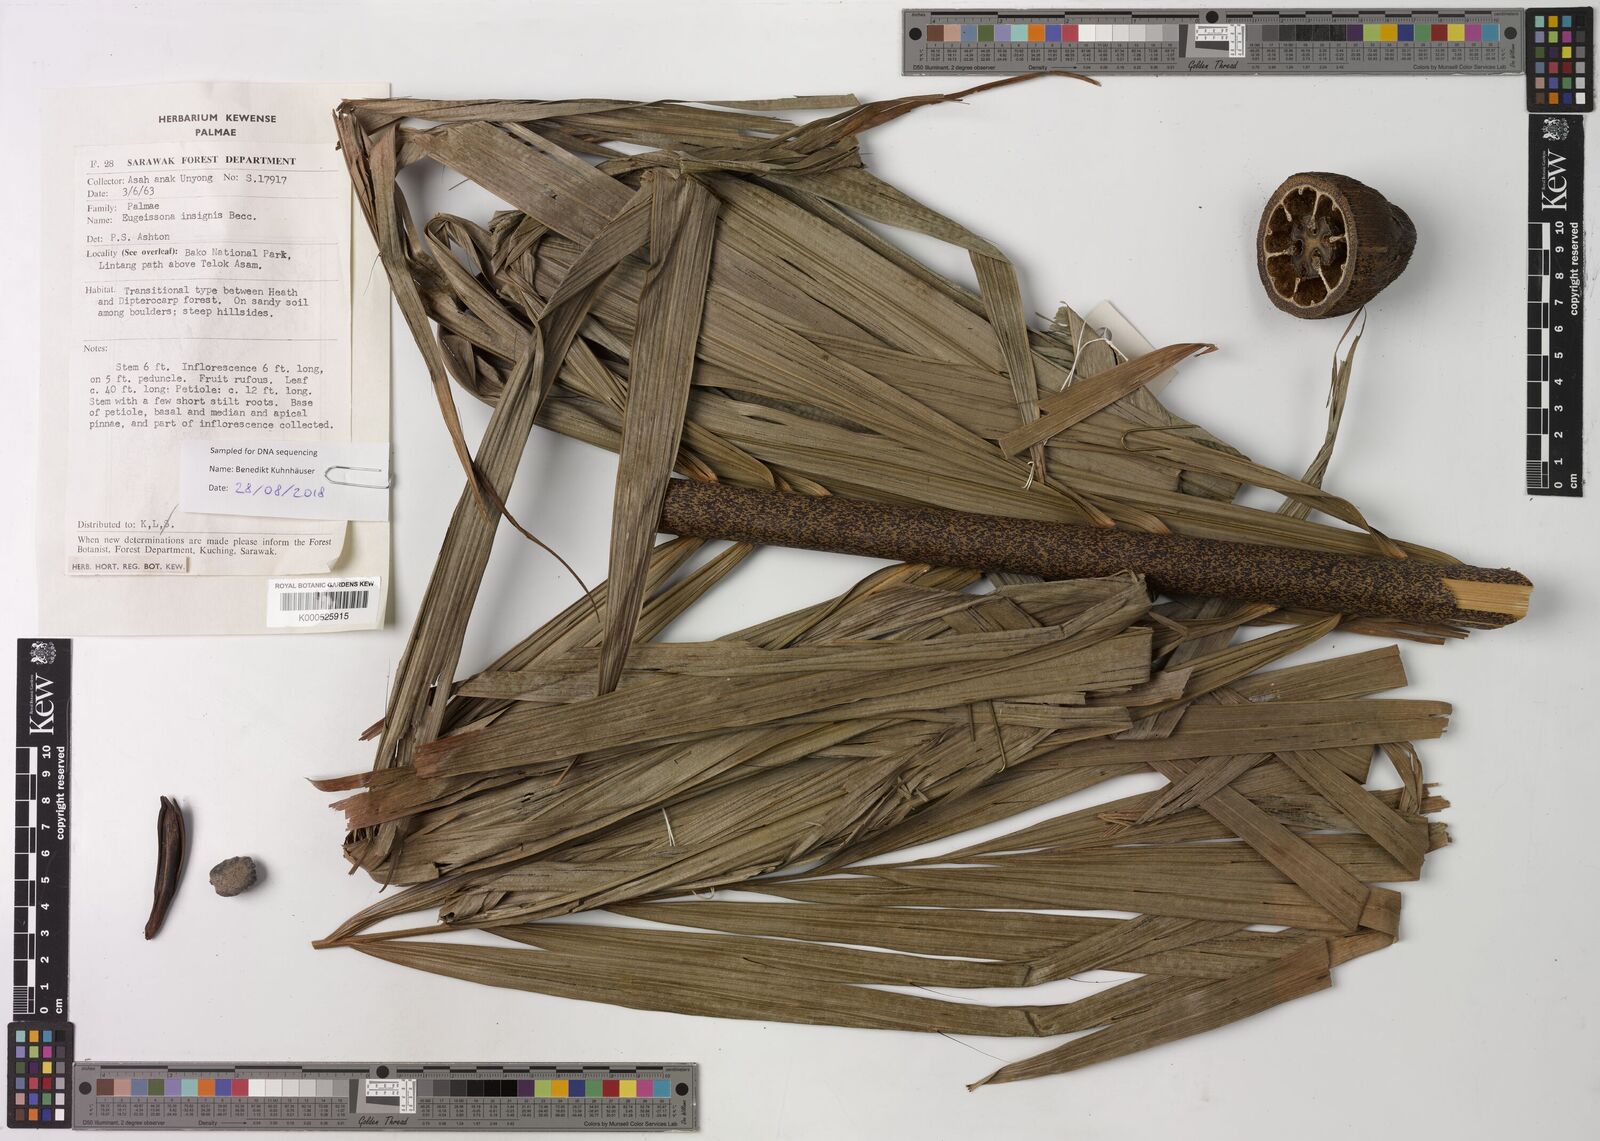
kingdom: Plantae
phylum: Tracheophyta
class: Liliopsida
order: Arecales
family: Arecaceae
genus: Eugeissona
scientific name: Eugeissona insignis
